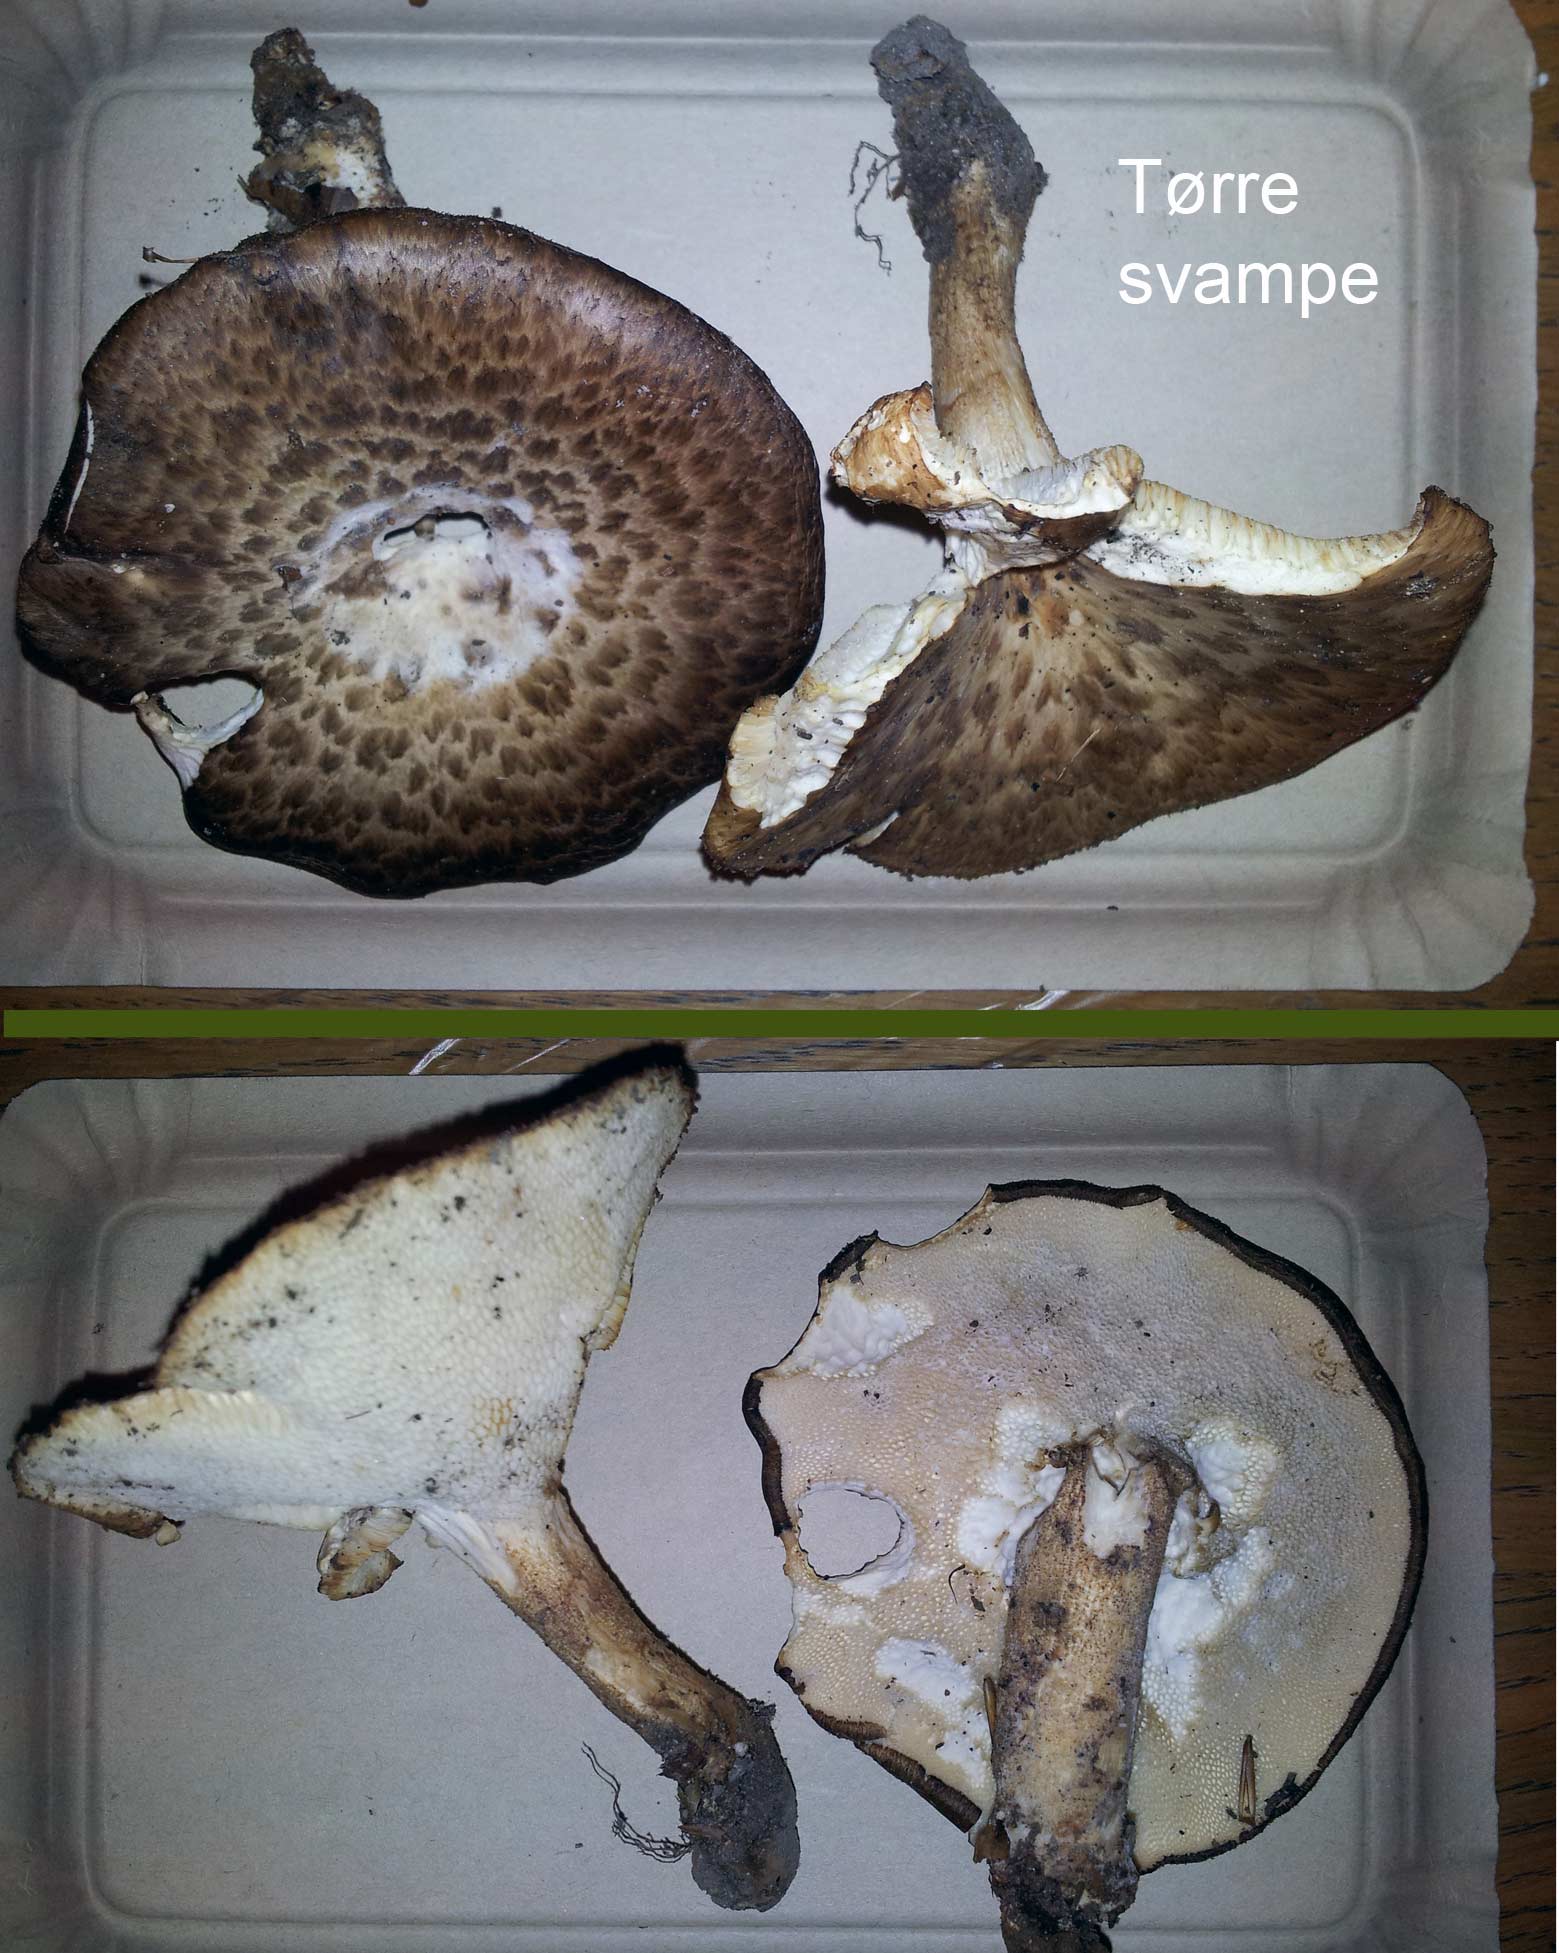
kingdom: Fungi
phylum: Basidiomycota
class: Agaricomycetes
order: Polyporales
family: Polyporaceae
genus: Polyporus
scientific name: Polyporus tuberaster
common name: knoldet stilkporesvamp
